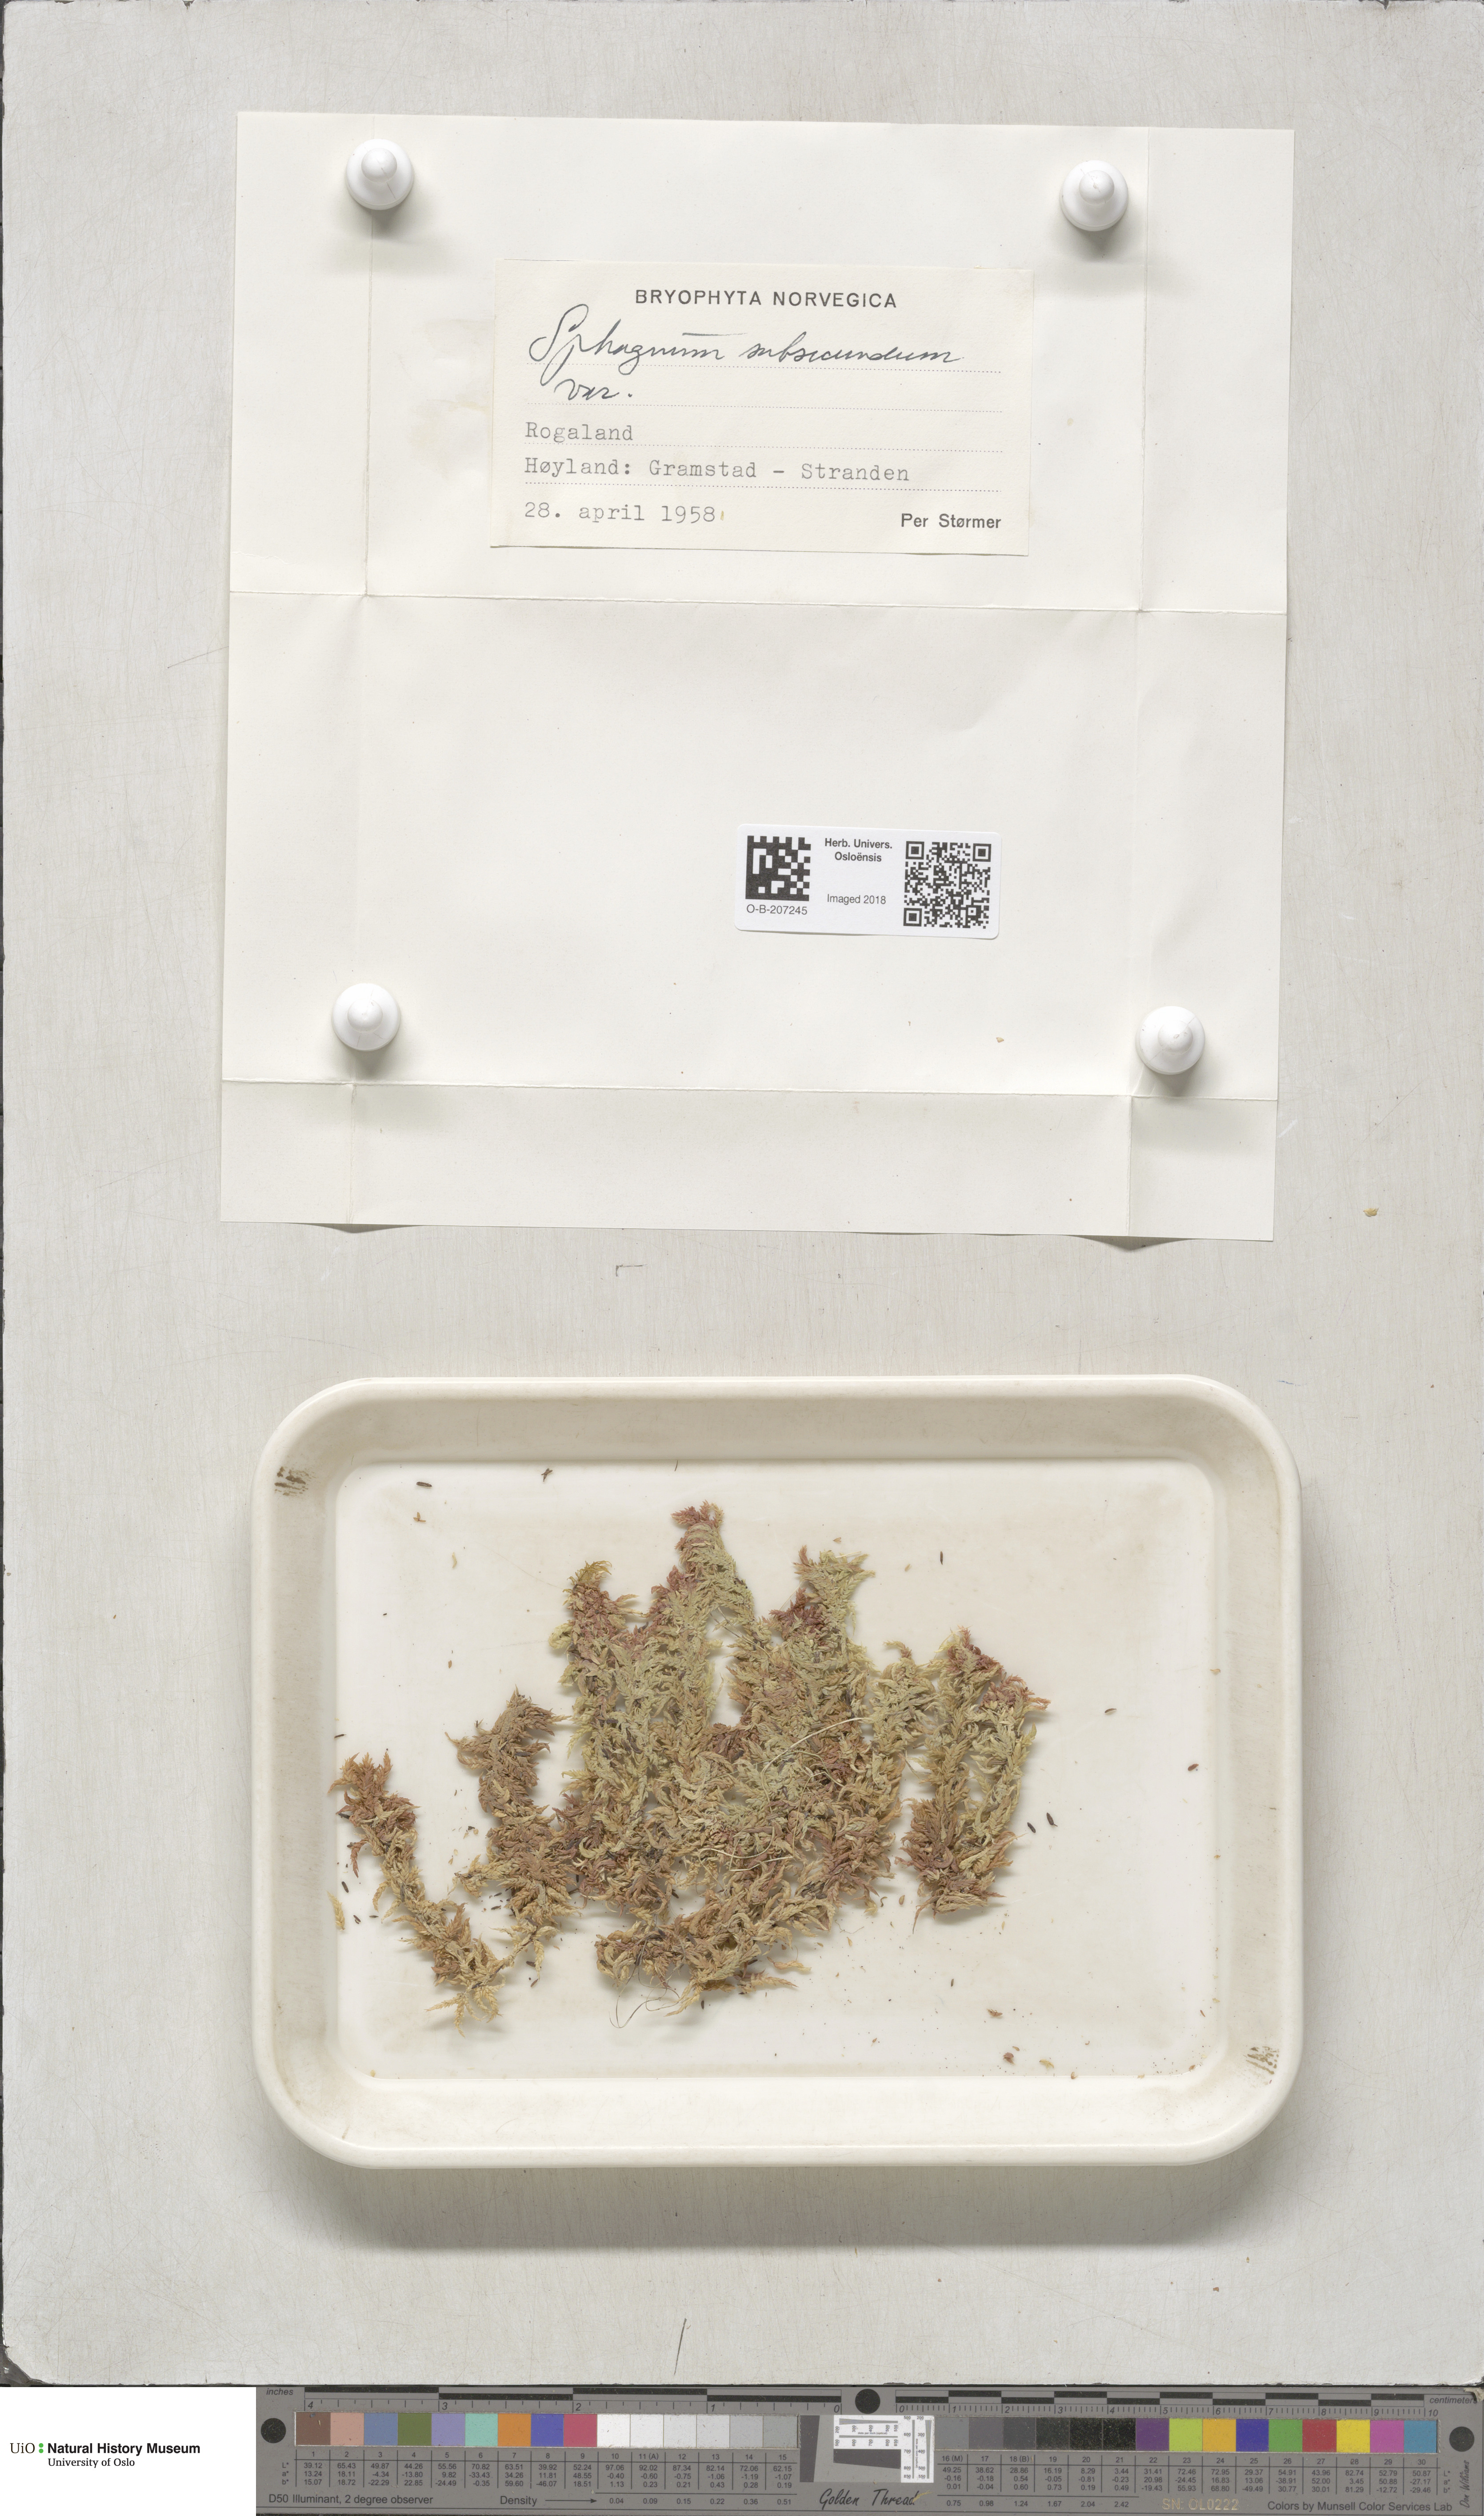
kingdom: Plantae
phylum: Bryophyta
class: Sphagnopsida
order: Sphagnales
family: Sphagnaceae
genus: Sphagnum
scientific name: Sphagnum subsecundum
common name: Orange peat moss
